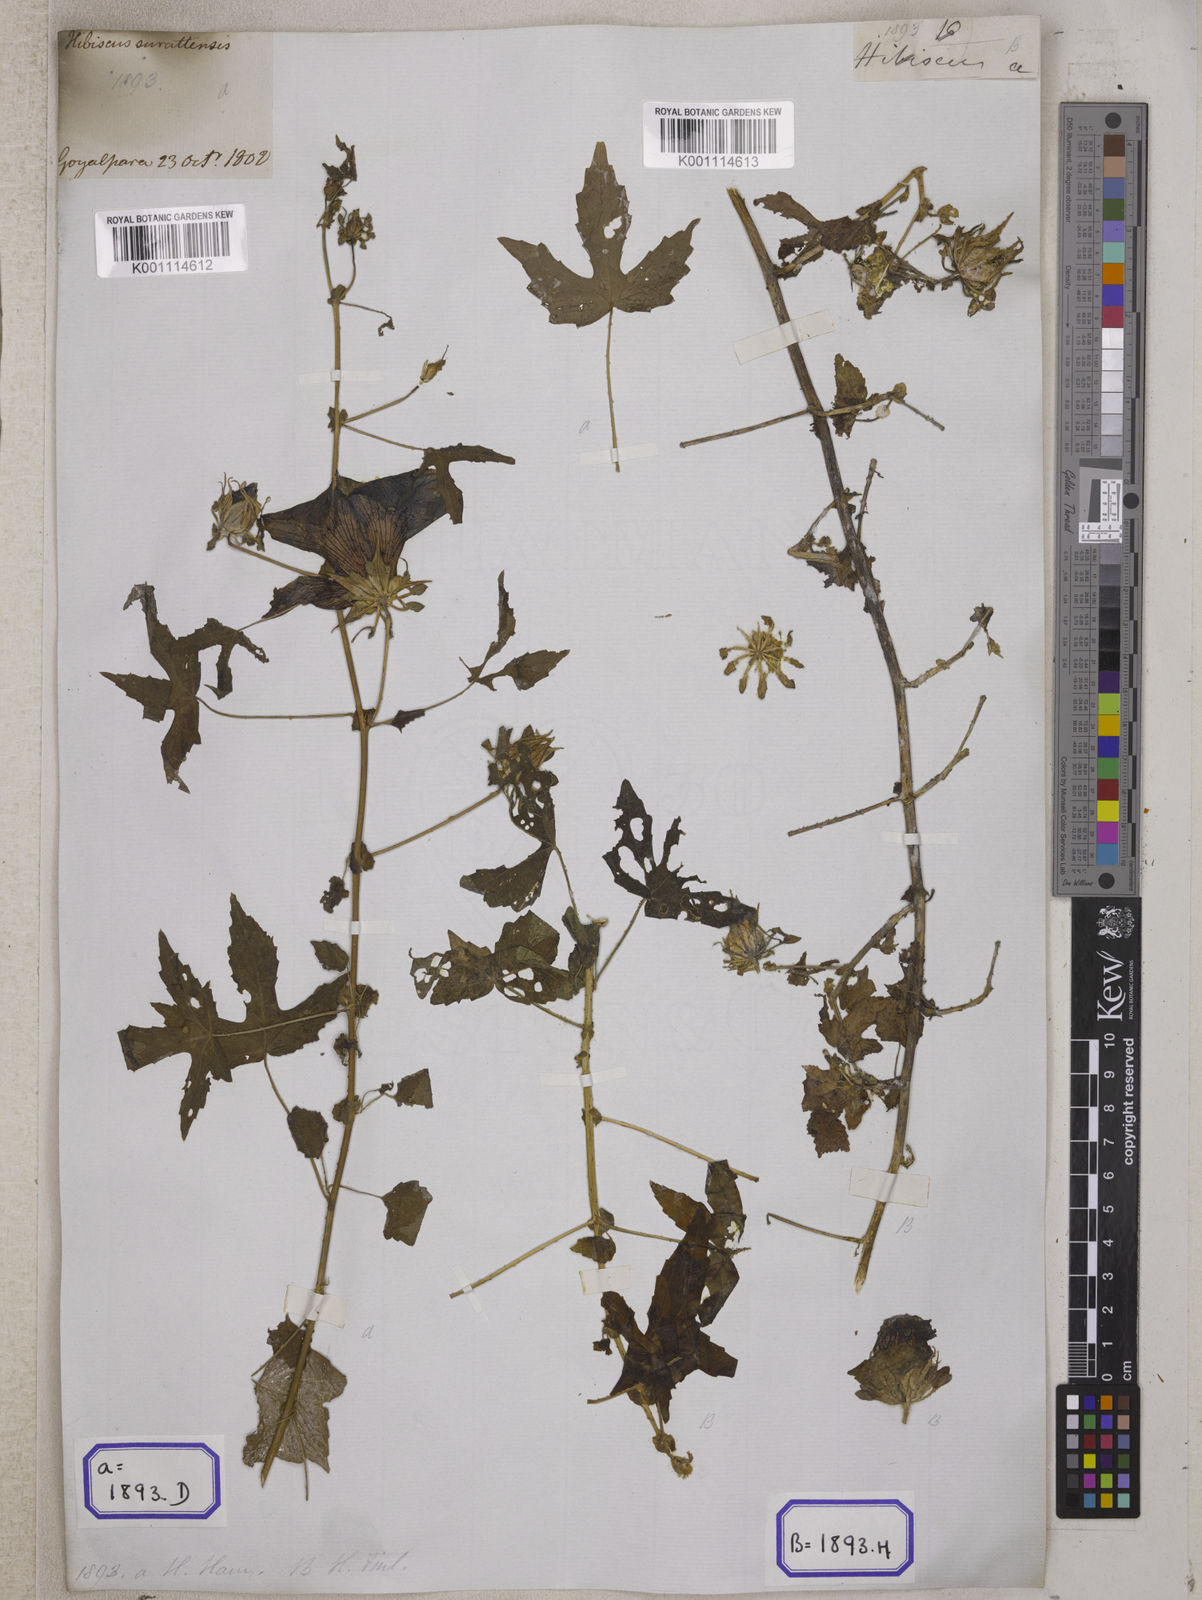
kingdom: Plantae
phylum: Tracheophyta
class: Magnoliopsida
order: Malvales
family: Malvaceae
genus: Hibiscus
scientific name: Hibiscus surattensis
